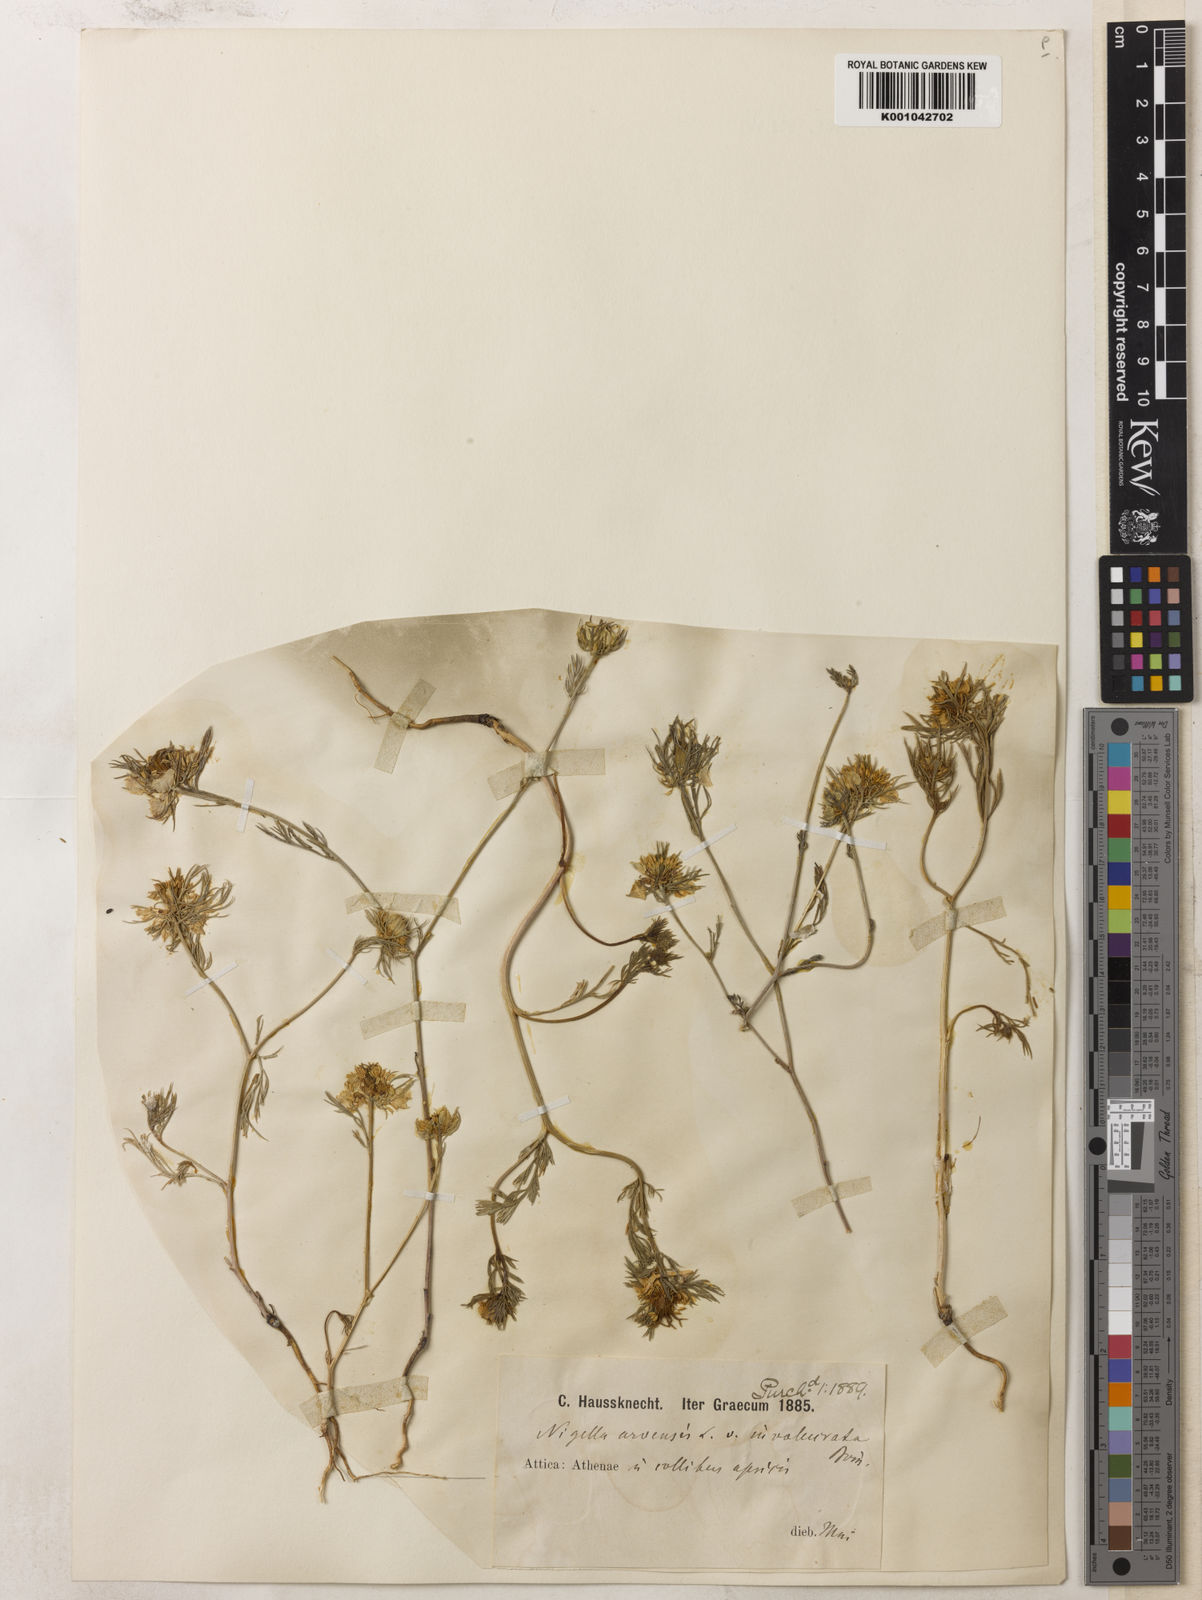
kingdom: Plantae
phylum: Tracheophyta
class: Magnoliopsida
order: Ranunculales
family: Ranunculaceae
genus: Nigella
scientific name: Nigella arvensis
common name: Wild fennel-flower
